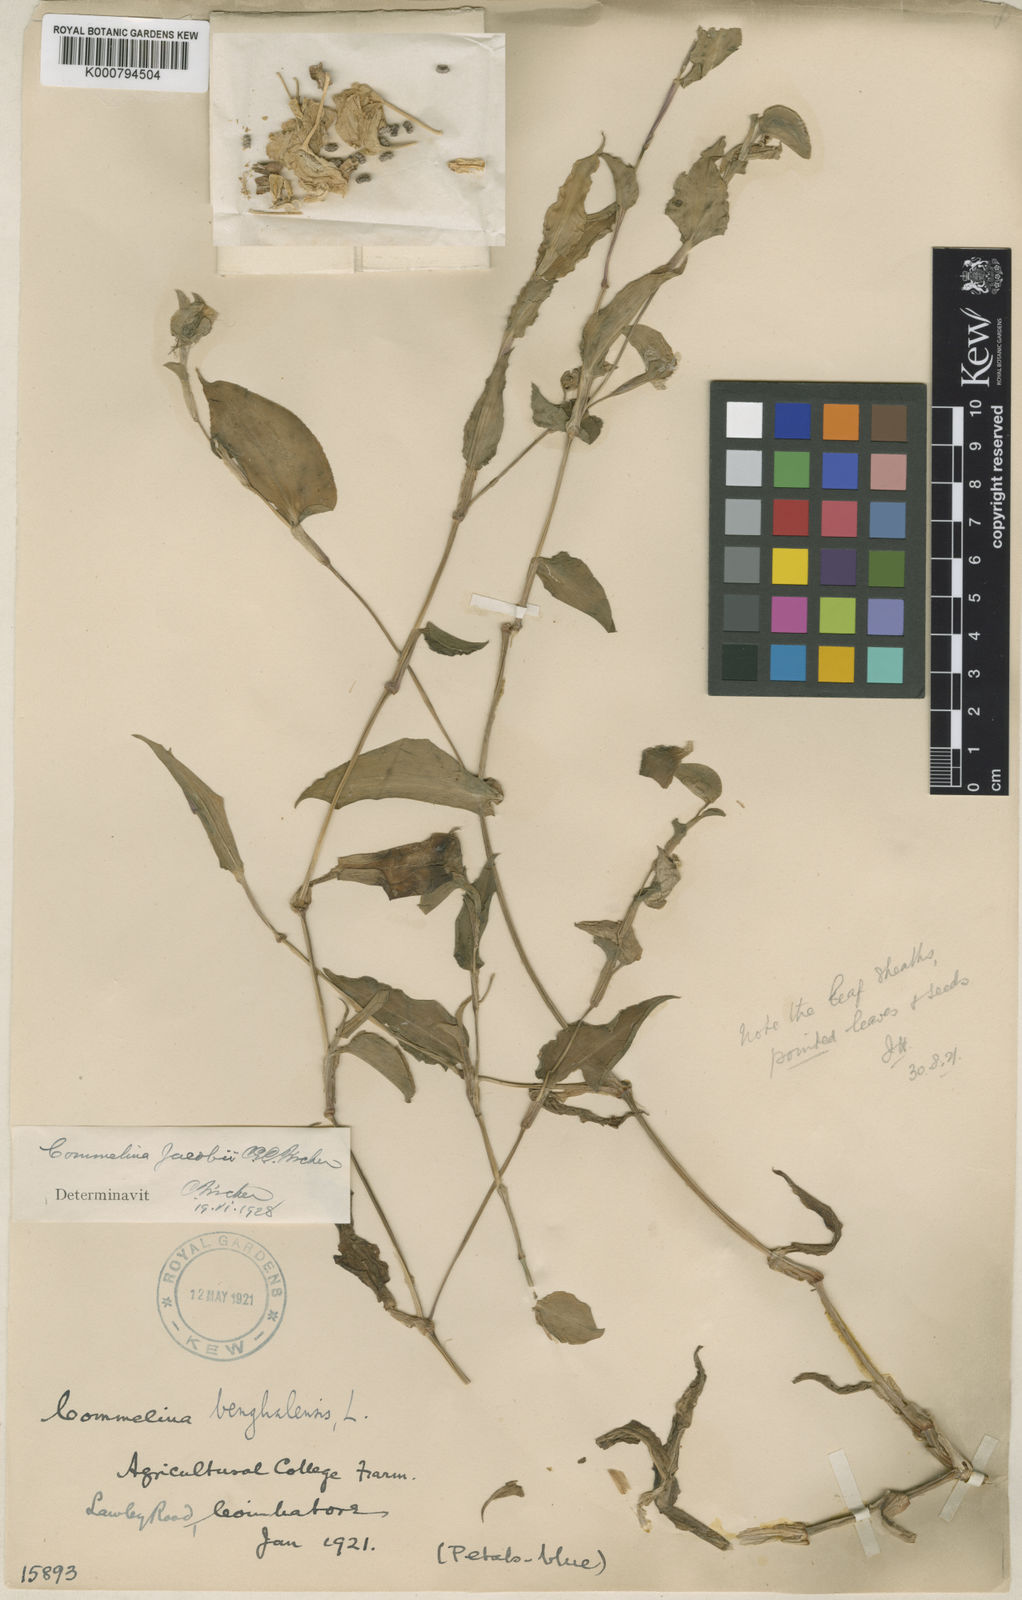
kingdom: Plantae
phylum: Tracheophyta
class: Liliopsida
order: Commelinales
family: Commelinaceae
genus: Commelina
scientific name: Commelina petersii
